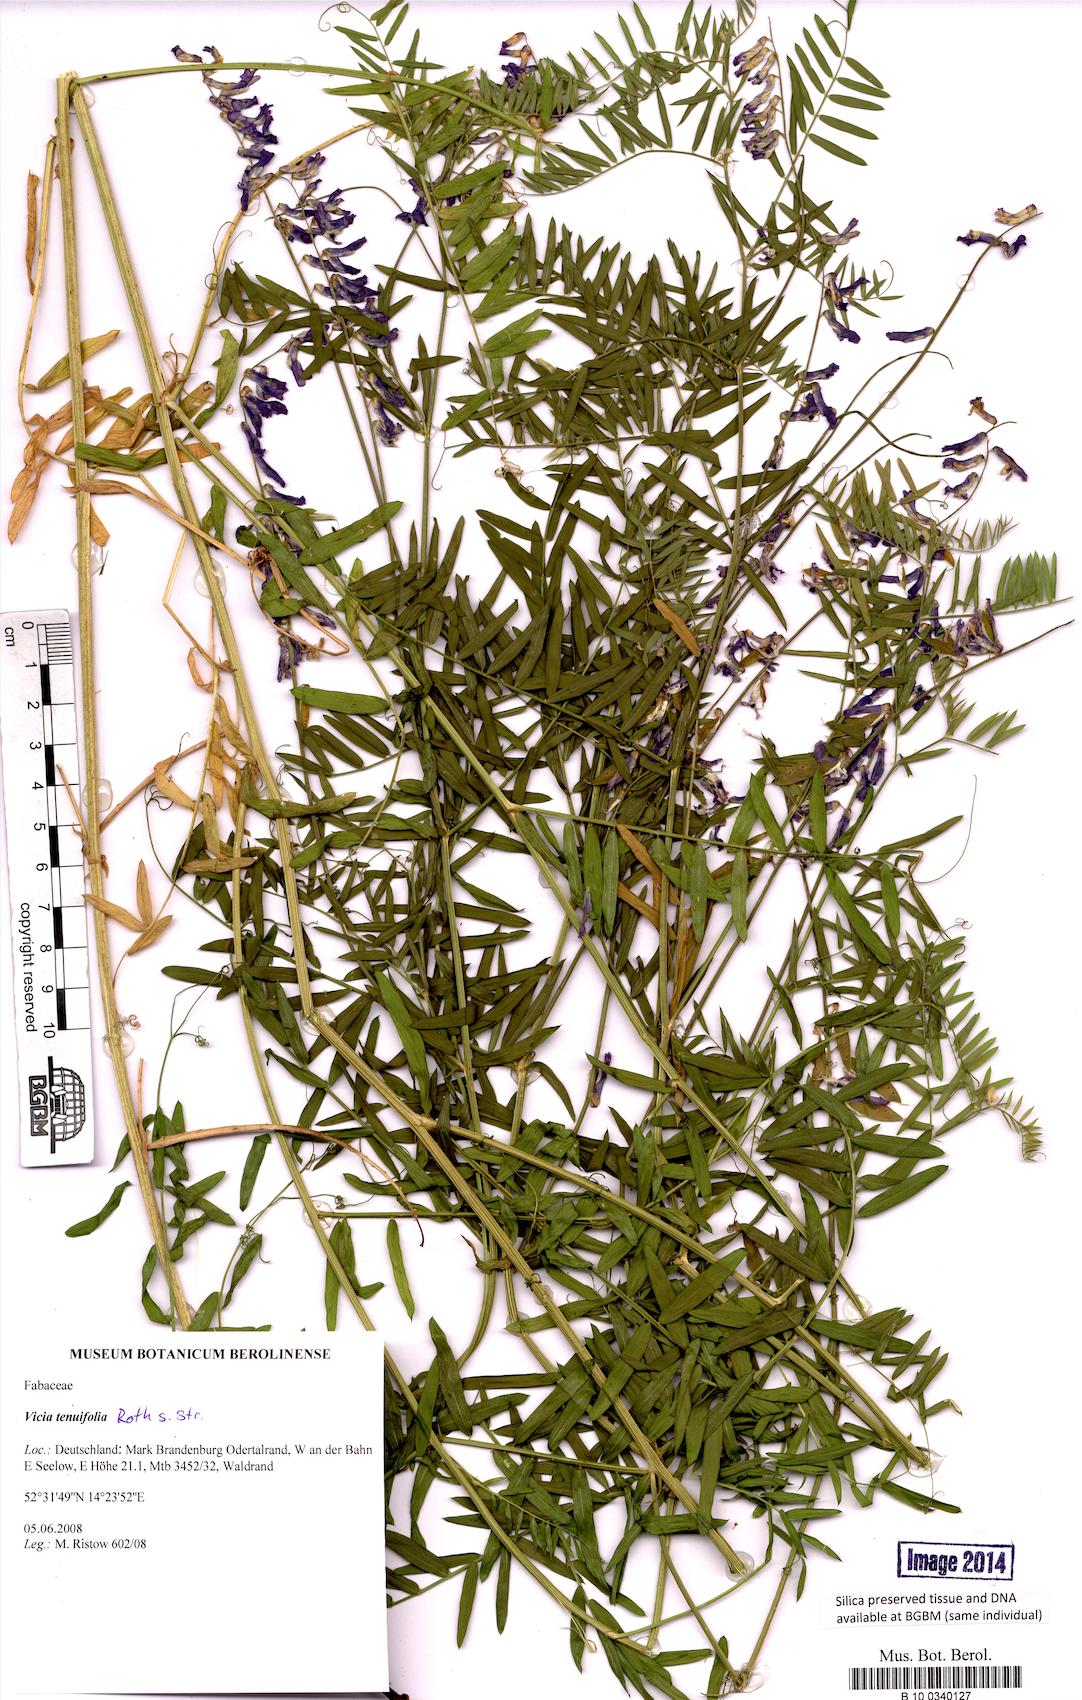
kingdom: Plantae
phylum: Tracheophyta
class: Magnoliopsida
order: Fabales
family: Fabaceae
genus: Vicia
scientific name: Vicia tenuifolia
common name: Fine-leaved vetch
